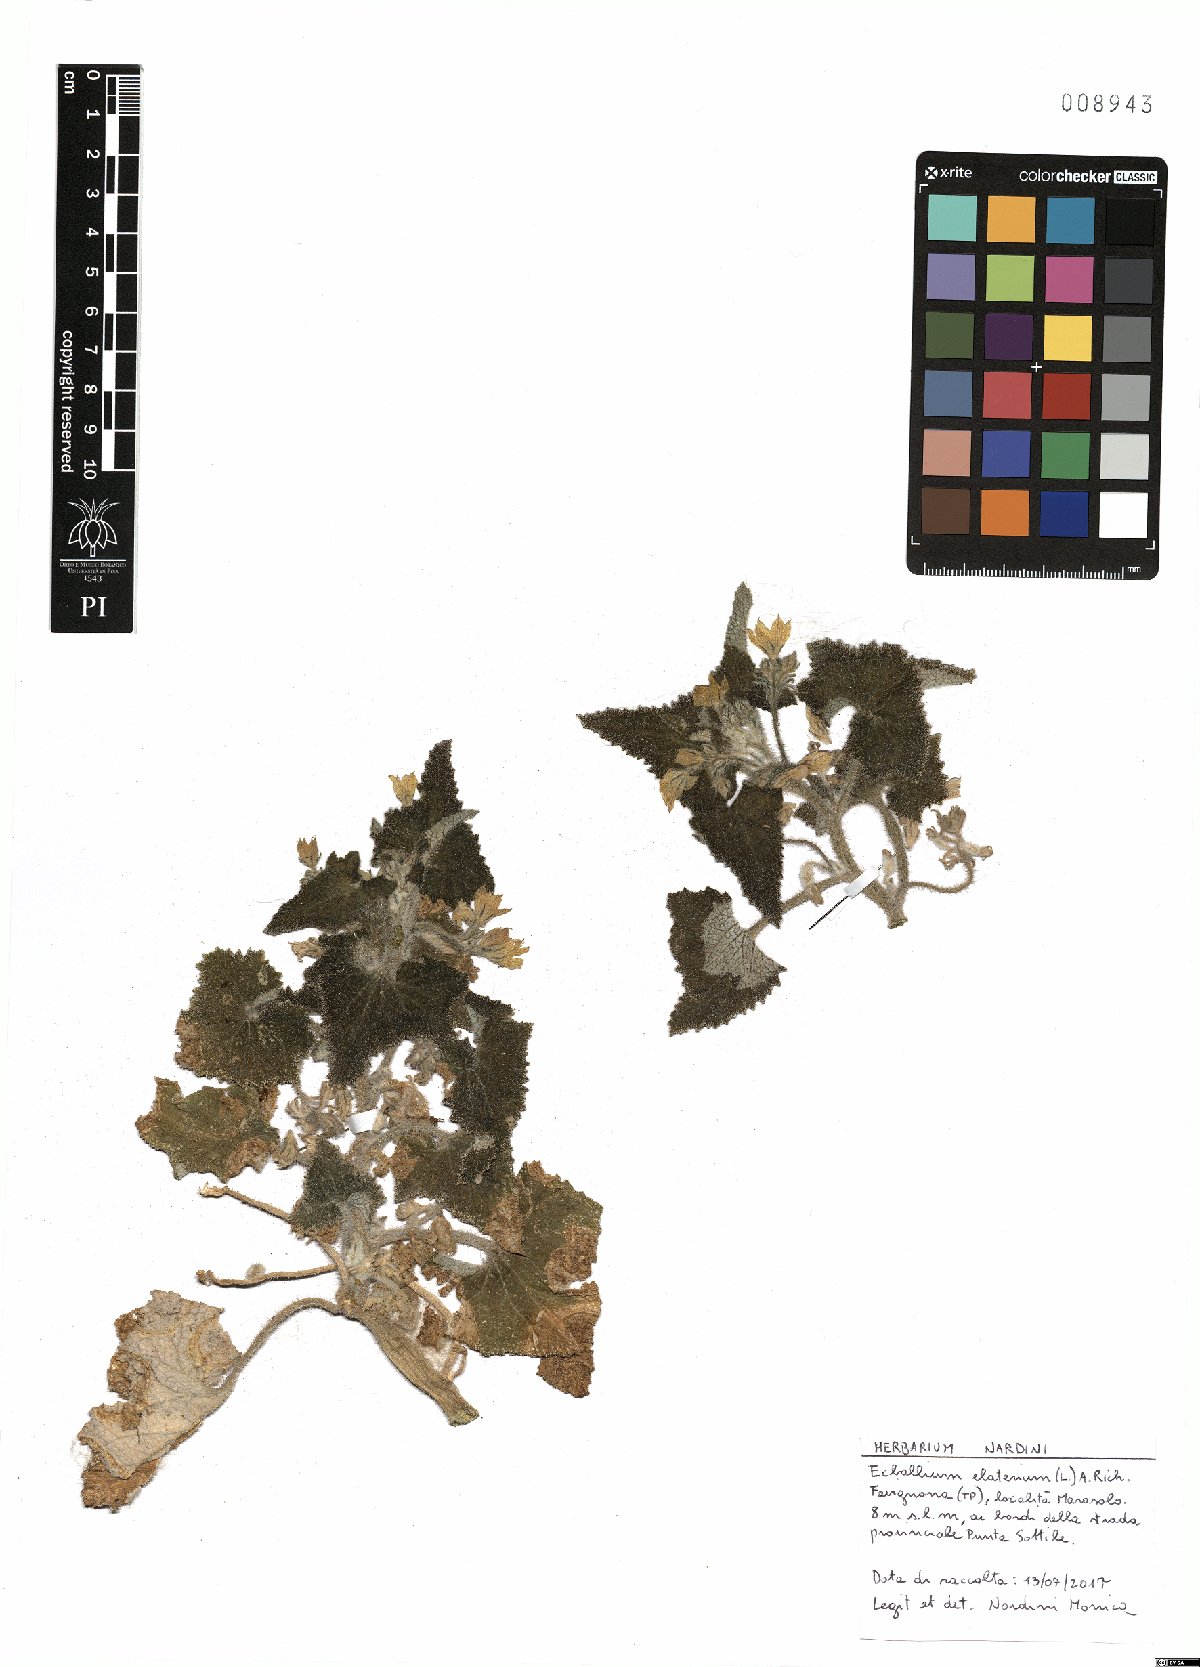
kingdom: Plantae
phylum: Tracheophyta
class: Magnoliopsida
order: Cucurbitales
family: Cucurbitaceae
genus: Ecballium
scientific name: Ecballium elaterium
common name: Squirting cucumber
